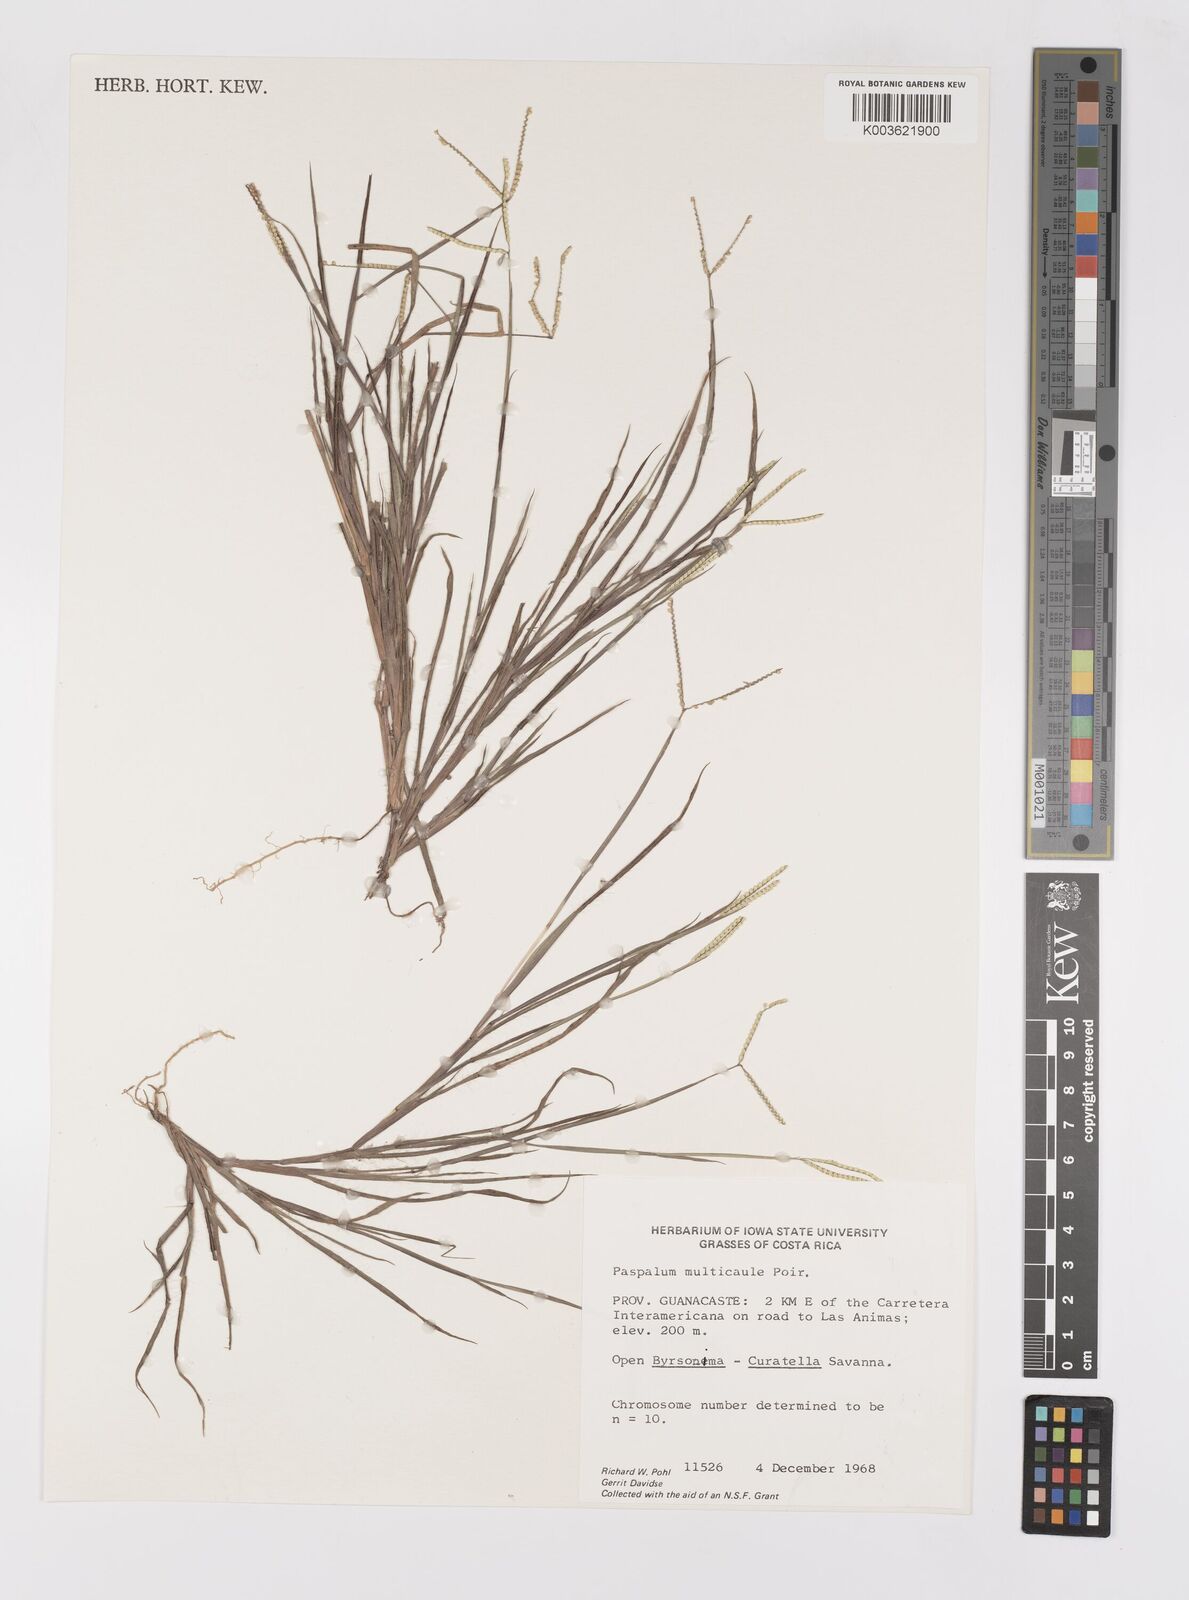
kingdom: Plantae
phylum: Tracheophyta
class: Liliopsida
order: Poales
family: Poaceae
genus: Paspalum
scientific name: Paspalum multicaule
